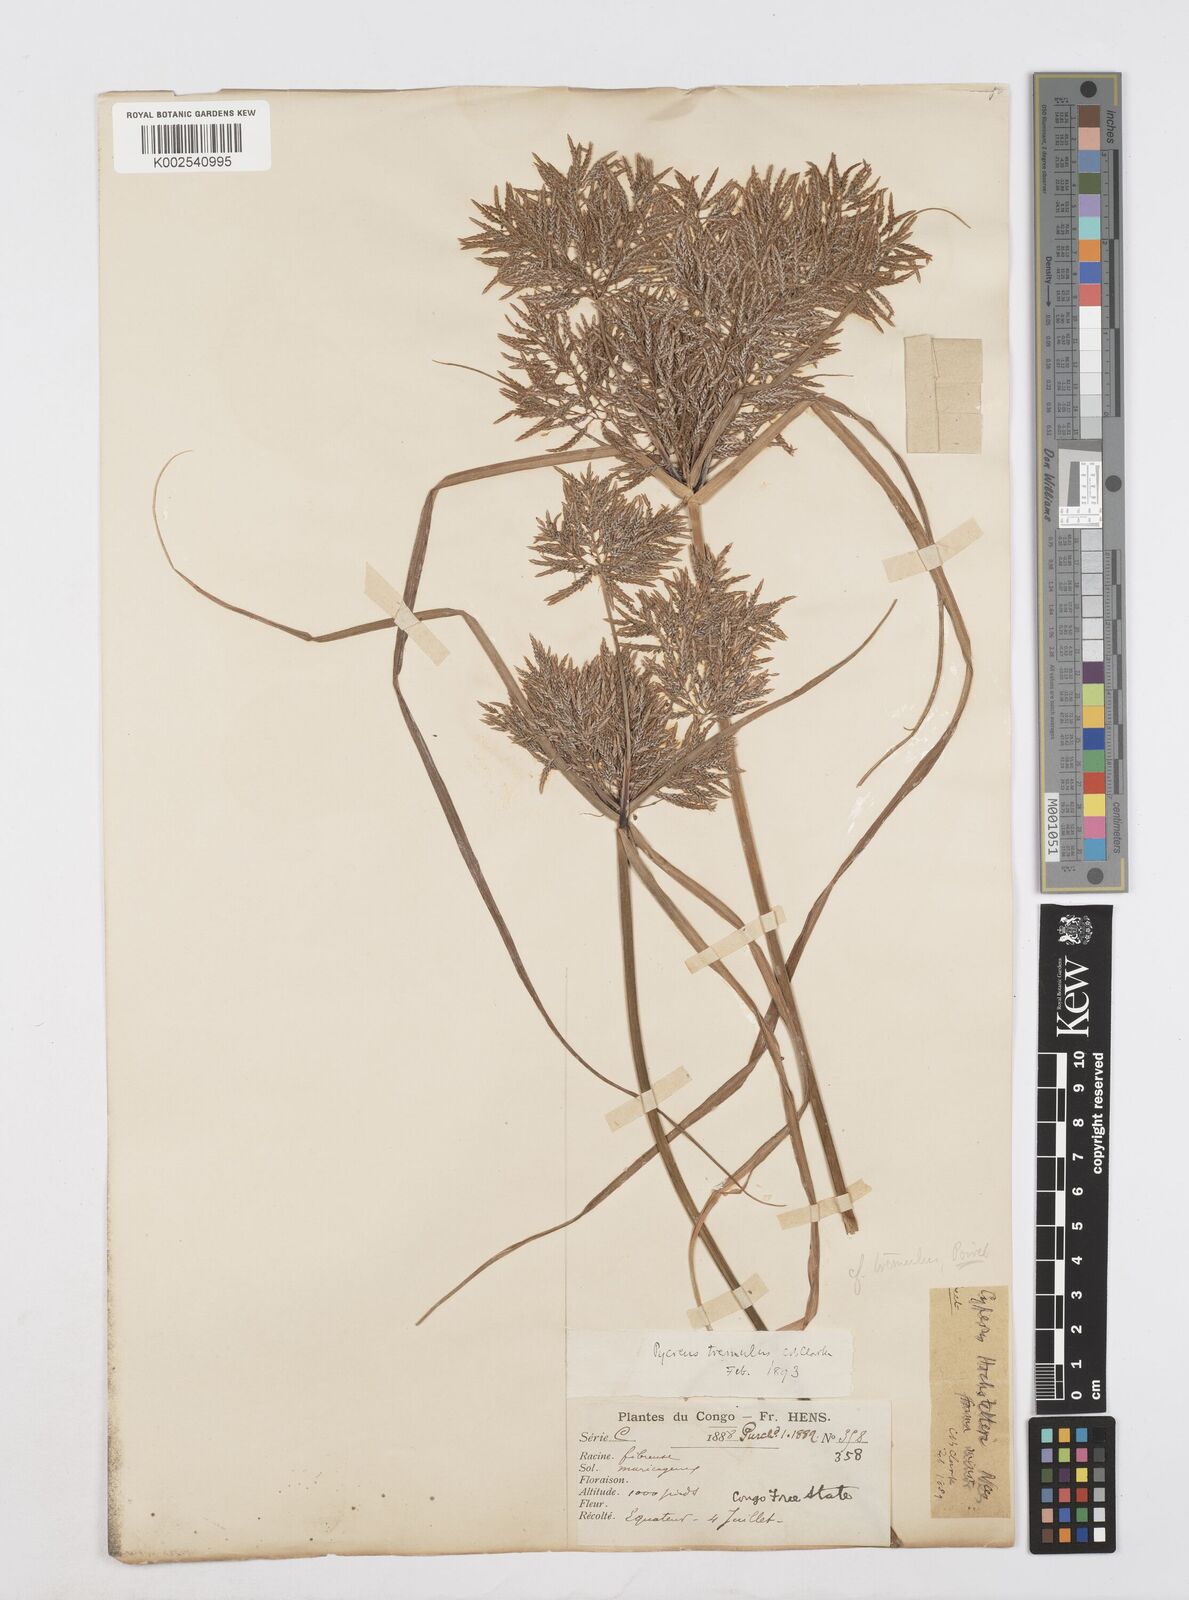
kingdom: Plantae
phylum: Tracheophyta
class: Liliopsida
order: Poales
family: Cyperaceae
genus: Cyperus
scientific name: Cyperus macrostachyos
